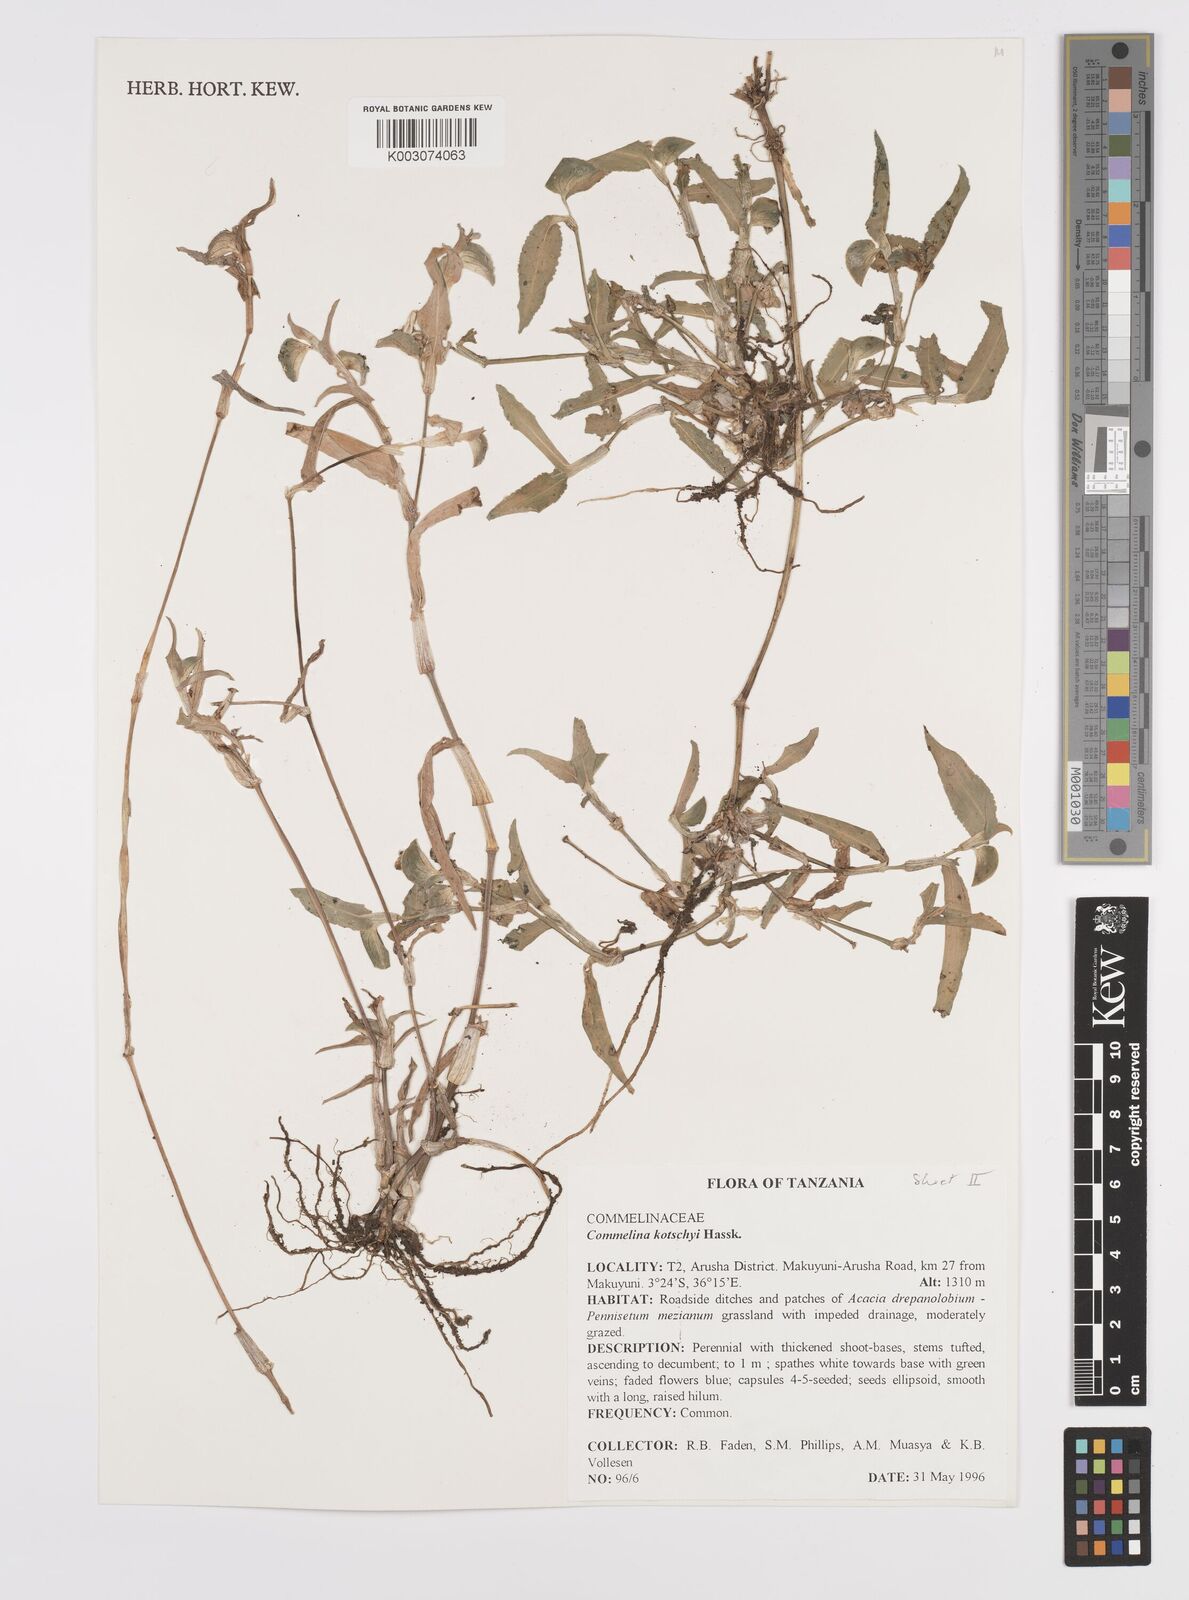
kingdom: Plantae
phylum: Tracheophyta
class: Liliopsida
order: Commelinales
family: Commelinaceae
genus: Commelina
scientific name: Commelina kotschyi
